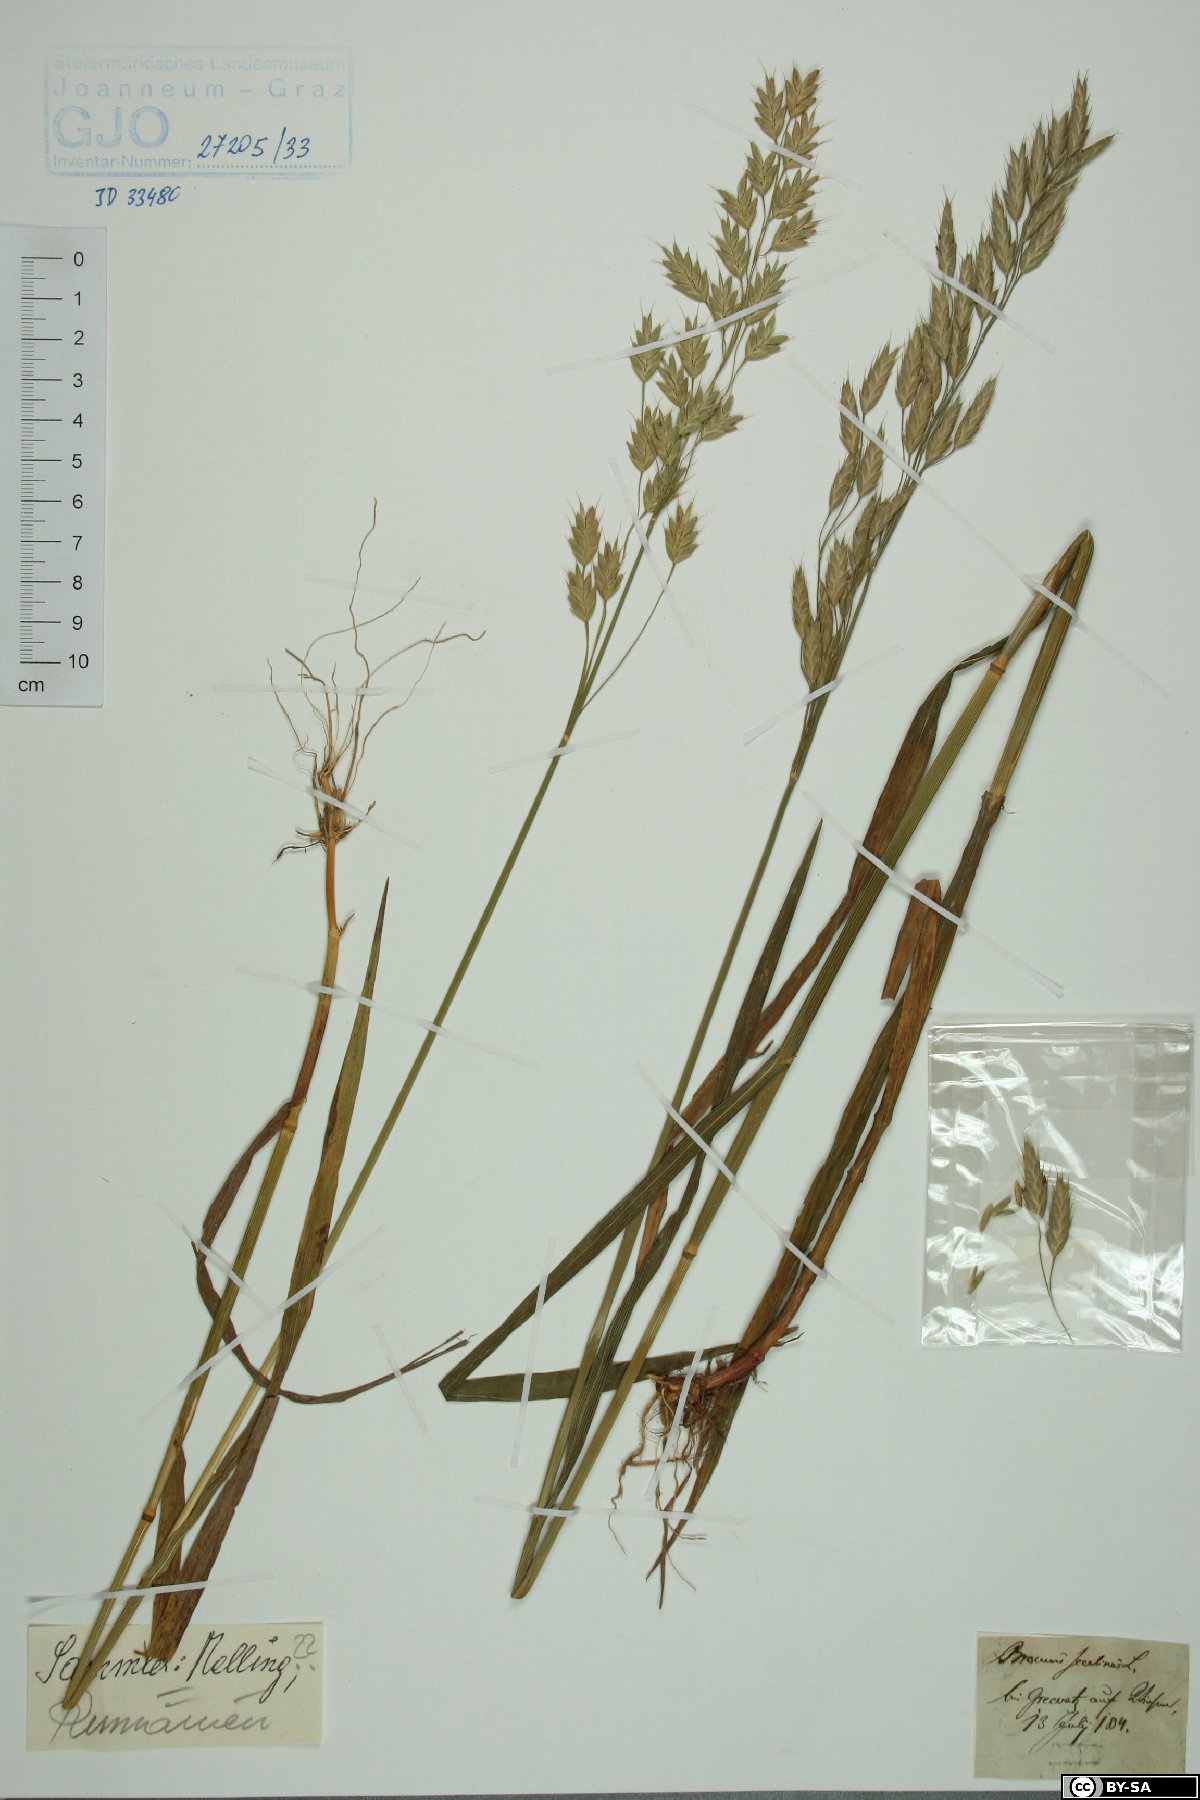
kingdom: Plantae
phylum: Tracheophyta
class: Liliopsida
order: Poales
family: Poaceae
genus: Bromus
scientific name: Bromus secalinus
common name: Rye brome
